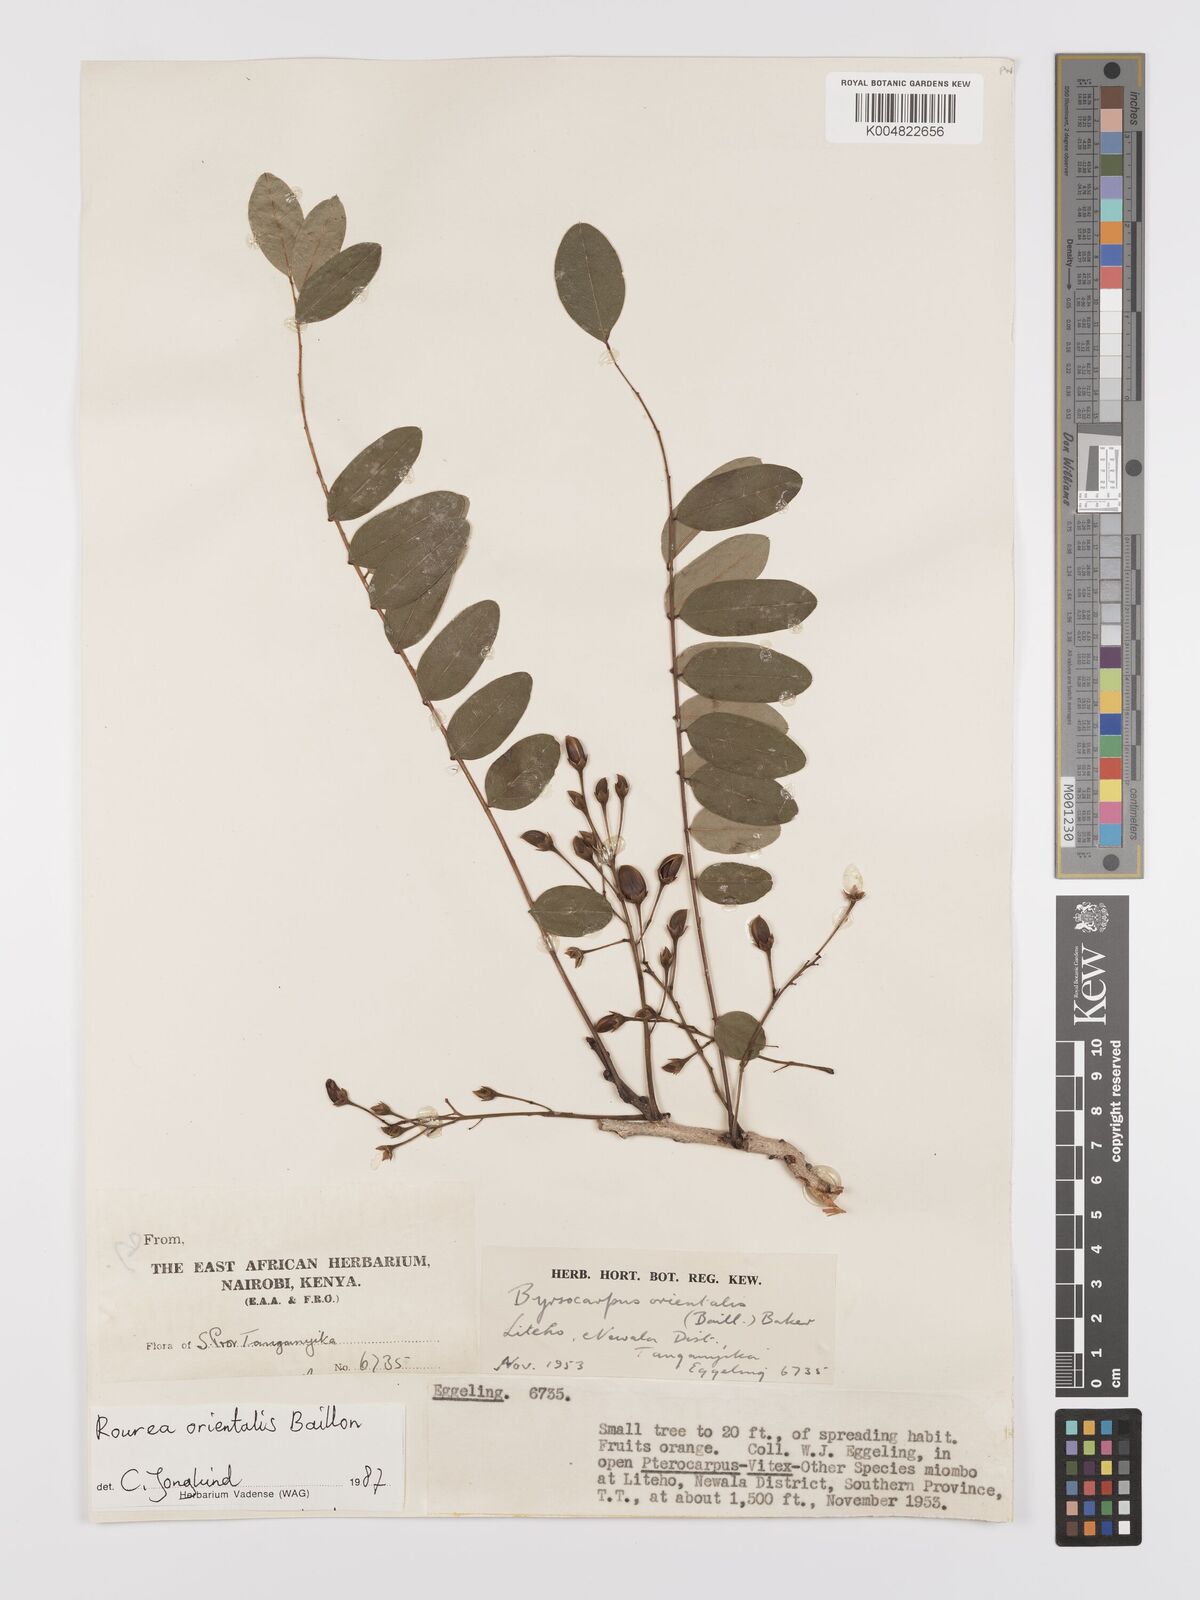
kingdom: Plantae
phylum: Tracheophyta
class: Magnoliopsida
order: Oxalidales
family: Connaraceae
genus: Rourea
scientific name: Rourea orientalis
